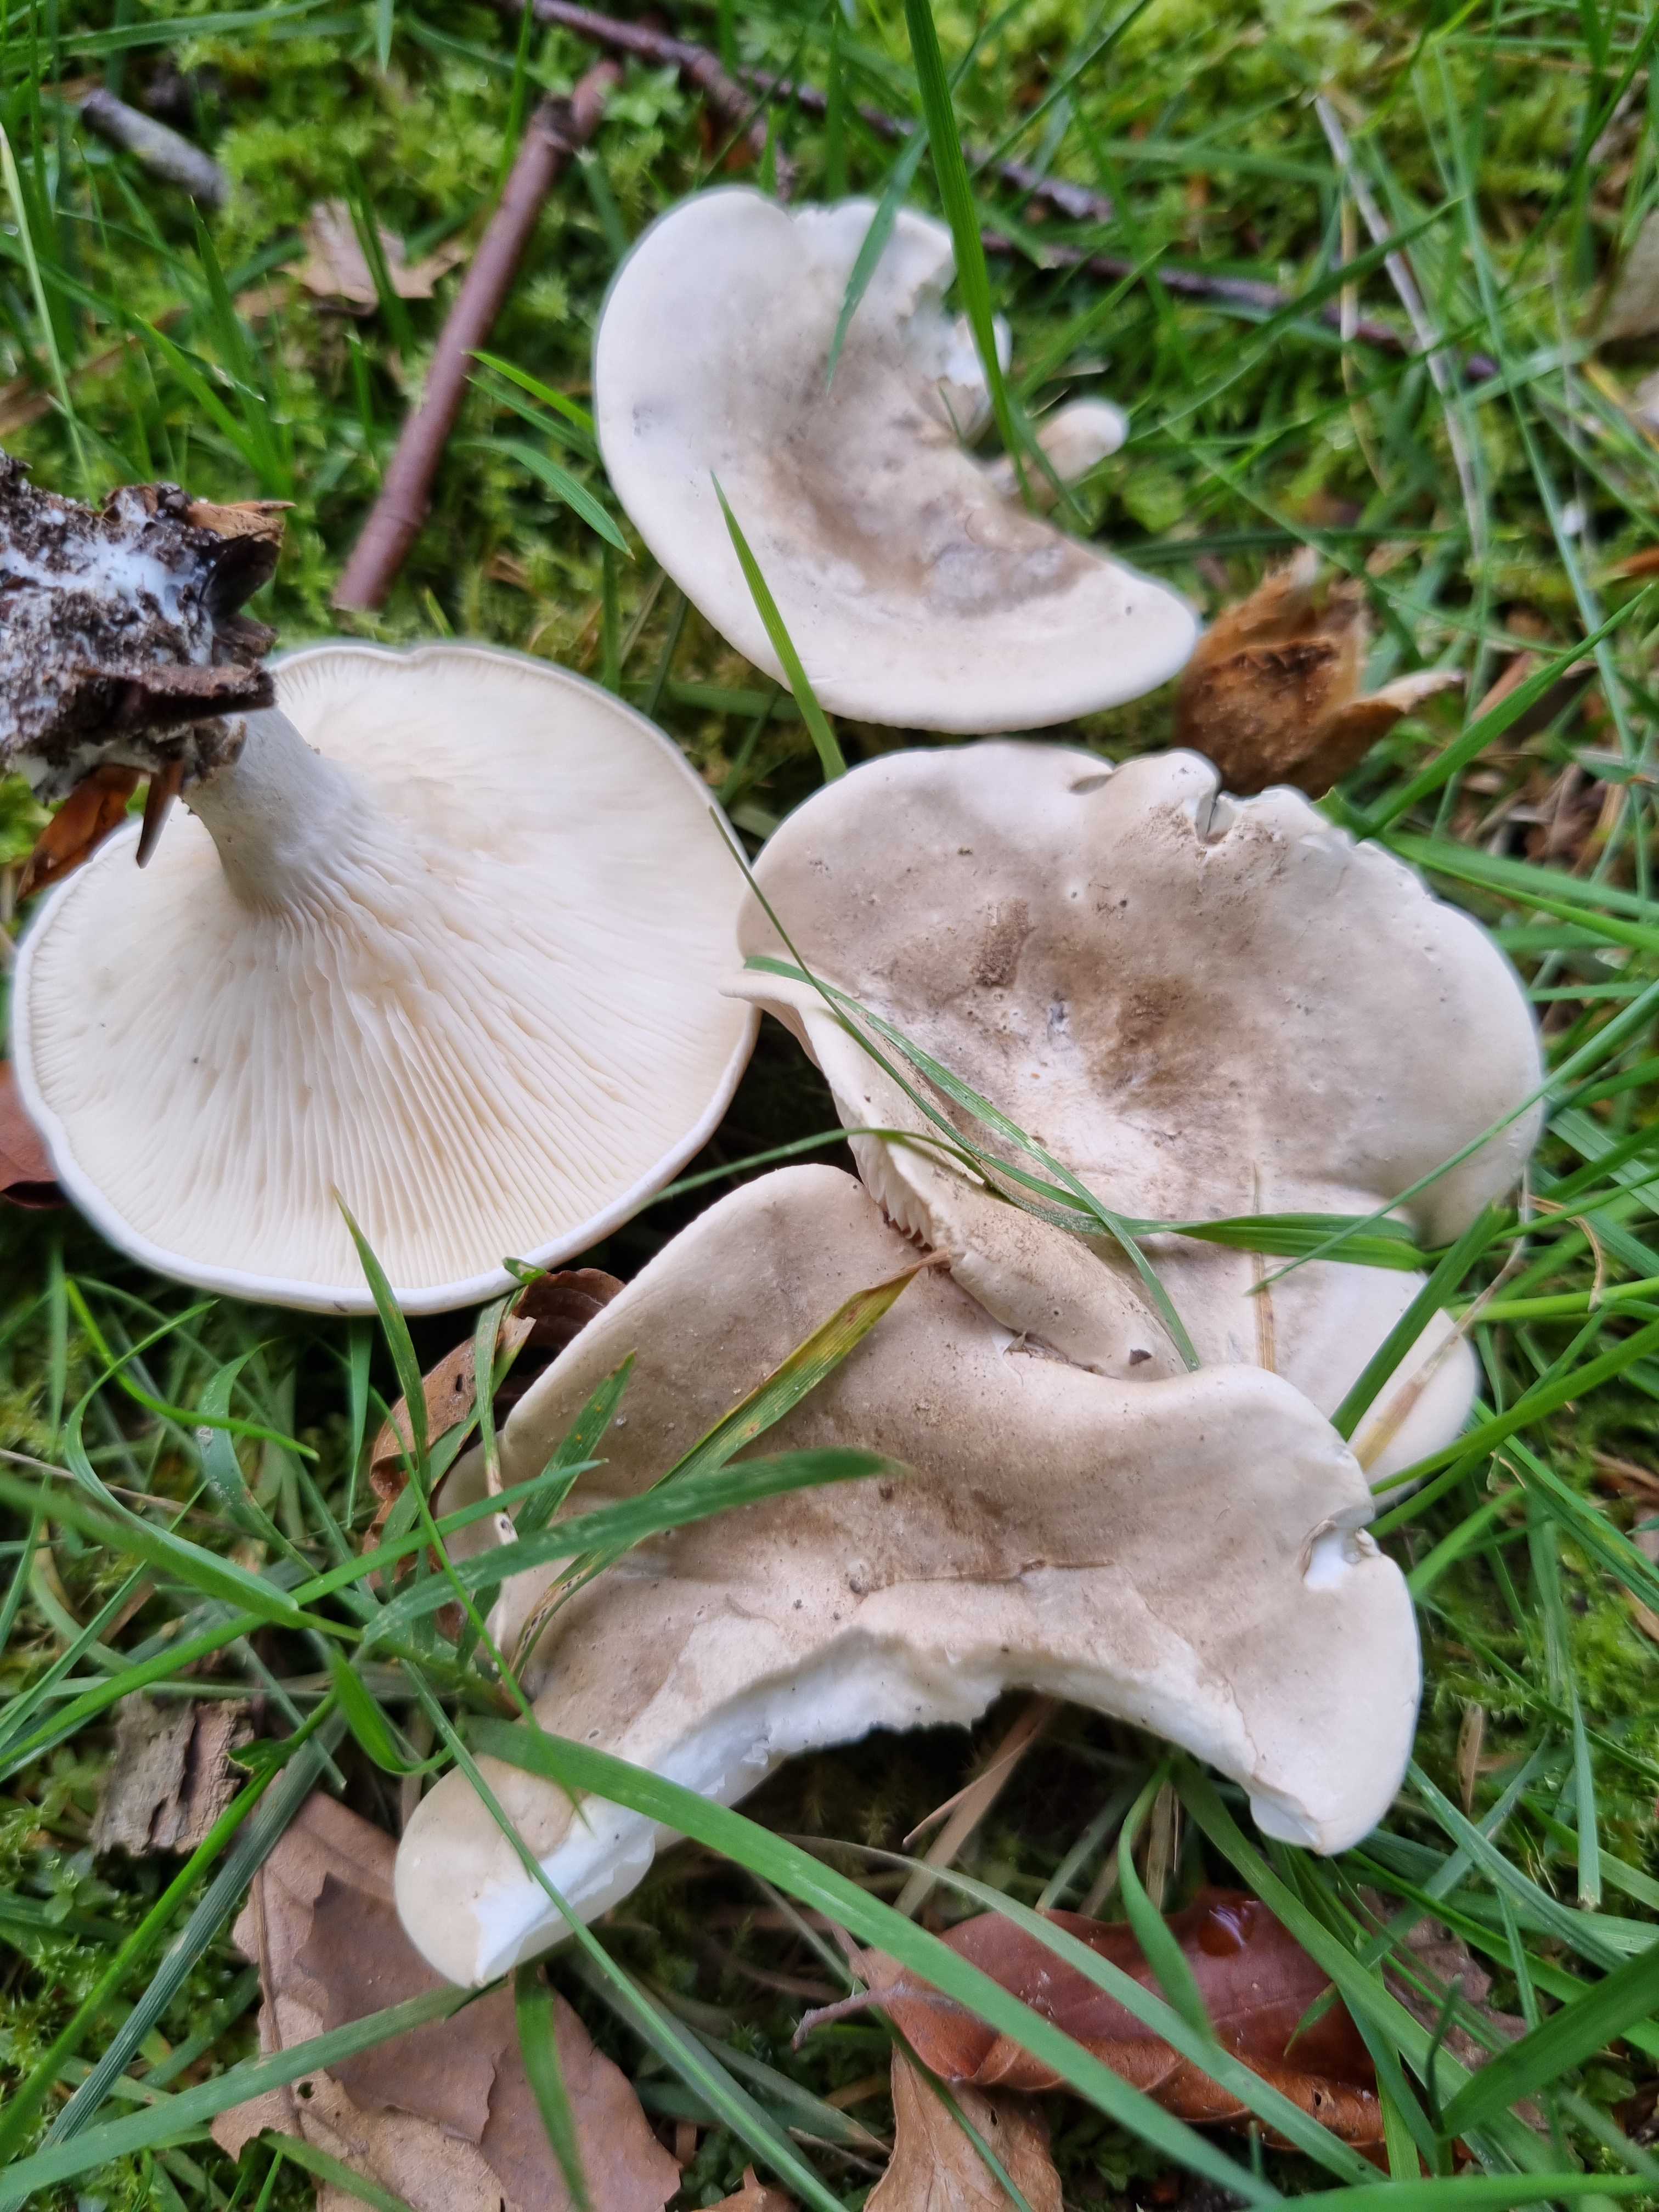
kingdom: Fungi
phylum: Basidiomycota
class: Agaricomycetes
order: Agaricales
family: Entolomataceae
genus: Clitopilus
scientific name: Clitopilus prunulus
